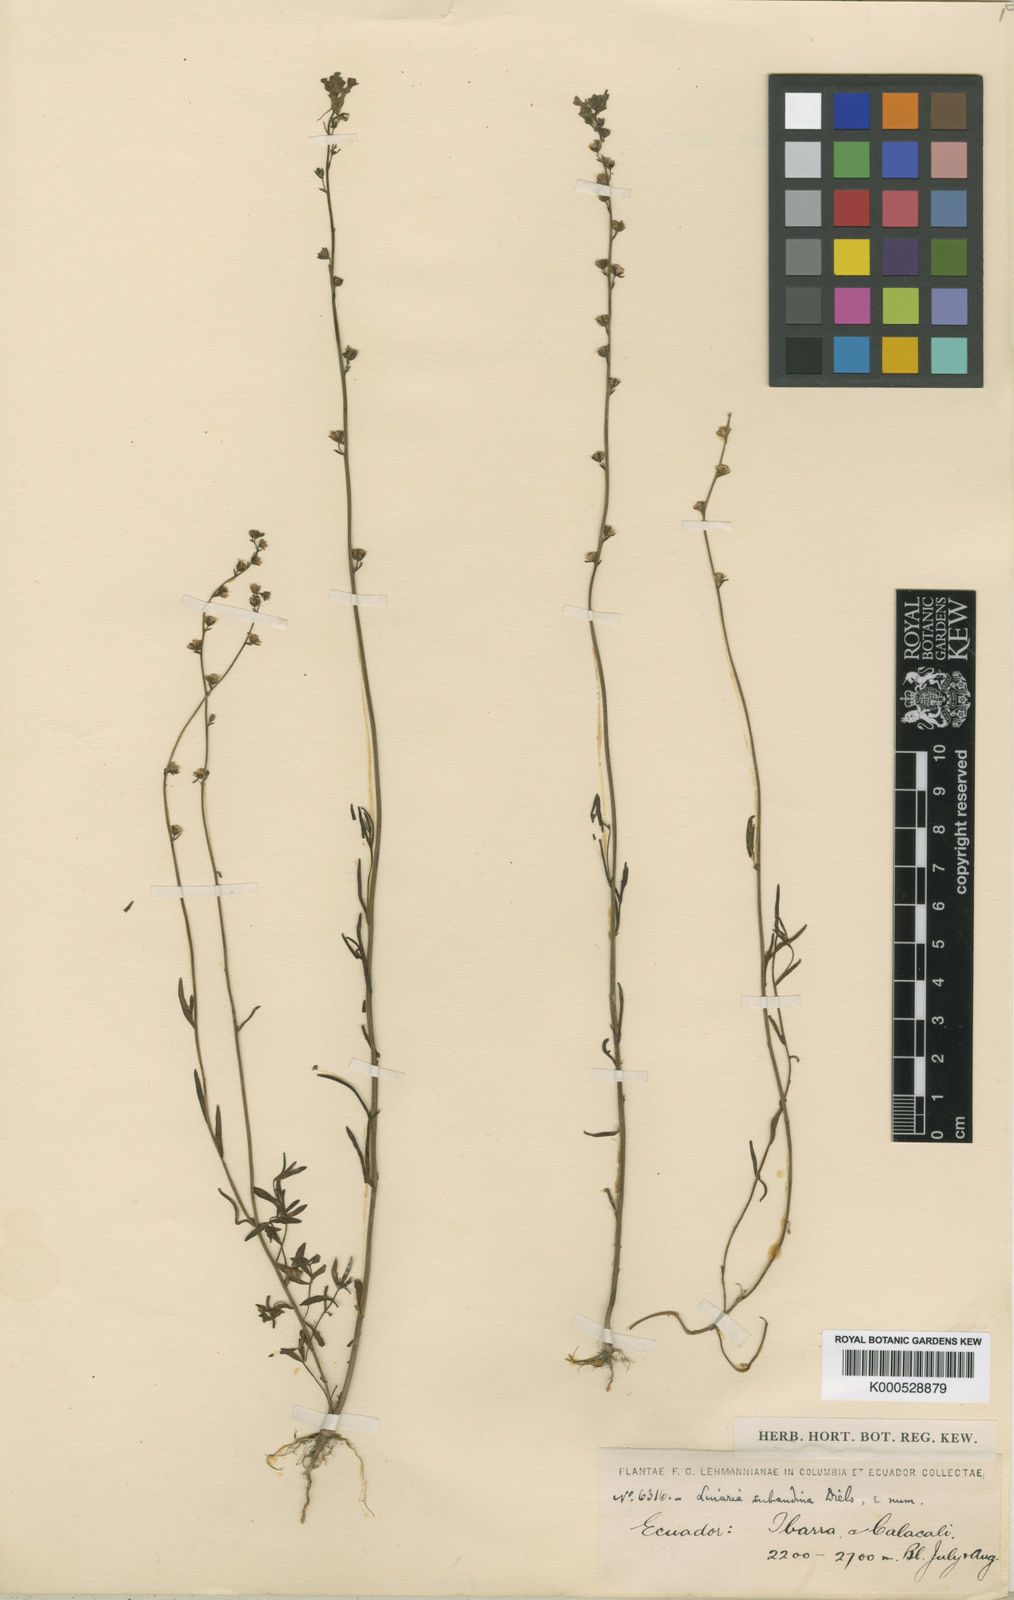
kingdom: Plantae
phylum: Tracheophyta
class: Magnoliopsida
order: Lamiales
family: Plantaginaceae
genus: Nuttallanthus
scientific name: Nuttallanthus subandinus
